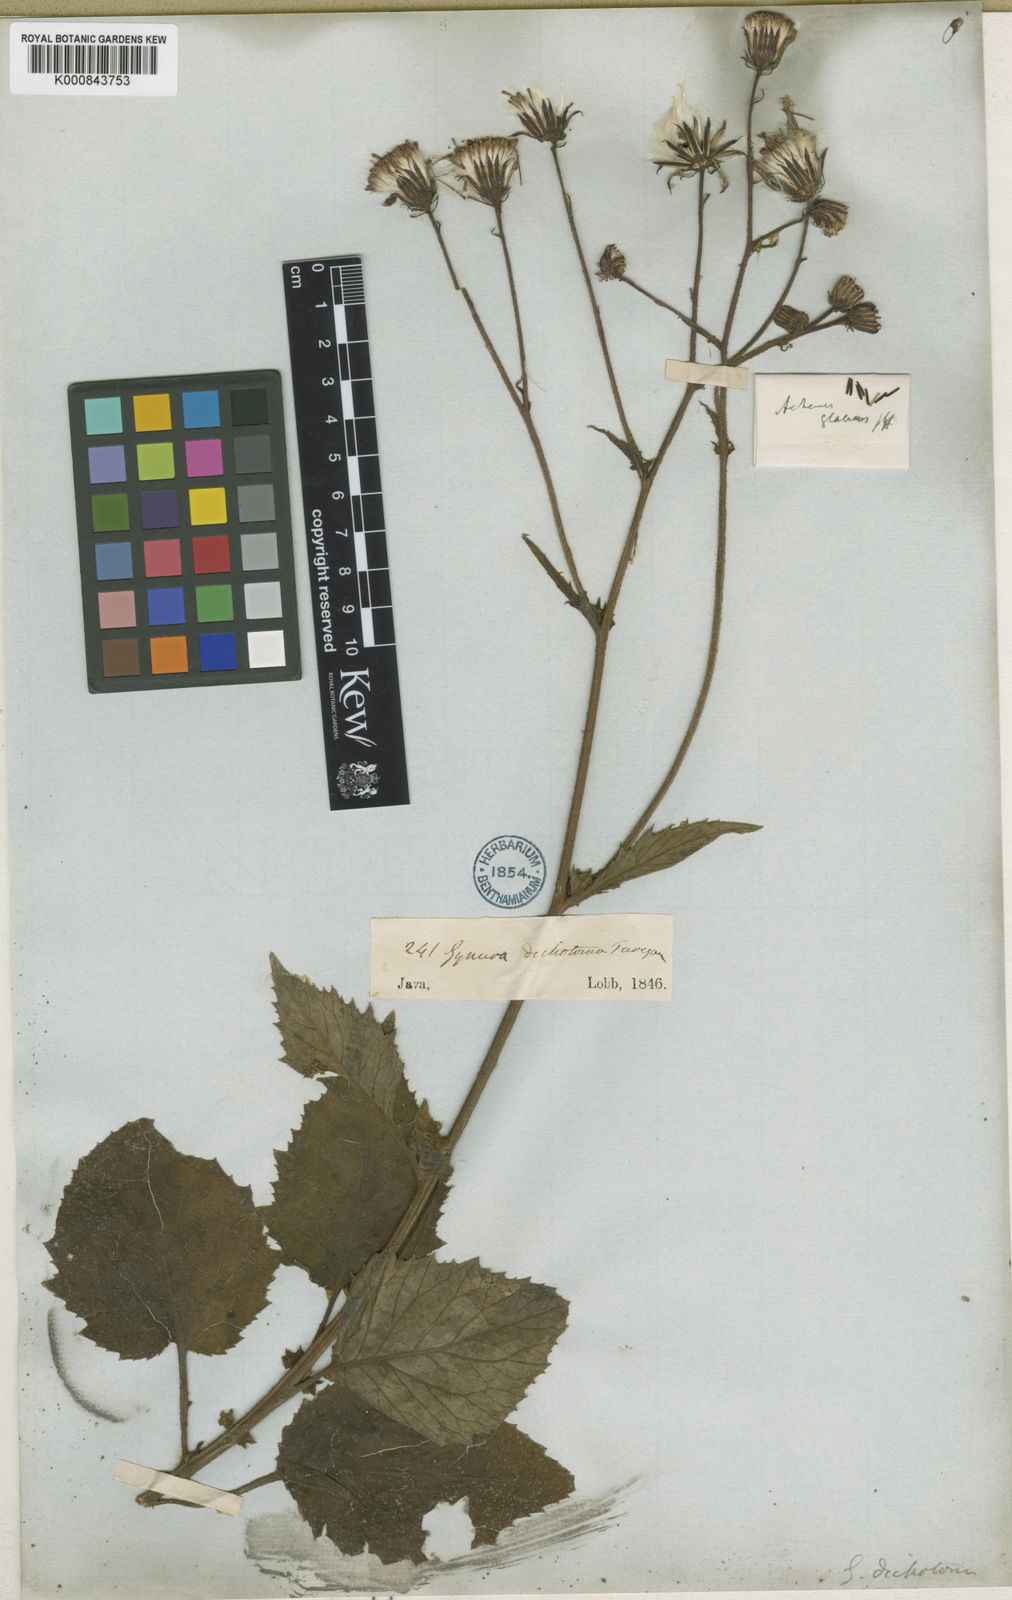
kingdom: Plantae
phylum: Tracheophyta
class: Magnoliopsida
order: Asterales
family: Asteraceae
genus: Gynura
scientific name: Gynura aurantiaca
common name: Velvetplant
